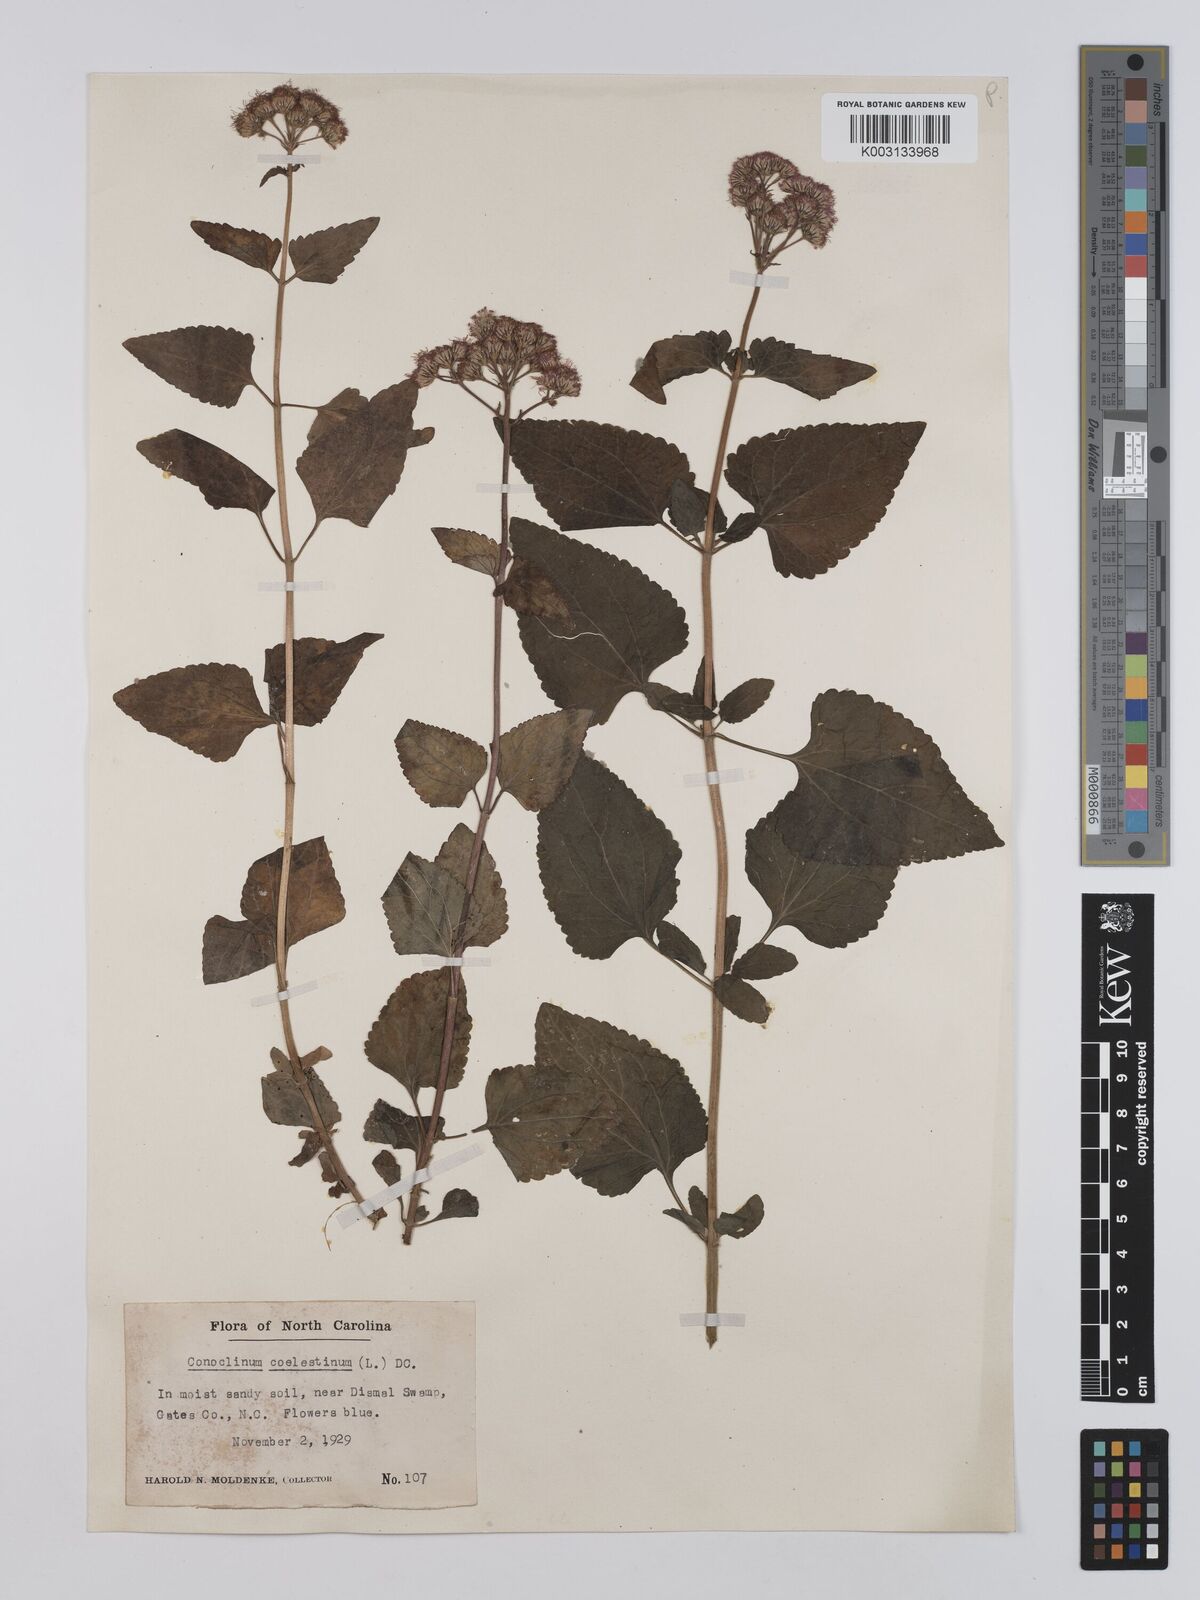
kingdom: Plantae
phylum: Tracheophyta
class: Magnoliopsida
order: Asterales
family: Asteraceae
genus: Conoclinium
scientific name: Conoclinium coelestinum
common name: Blue mistflower
